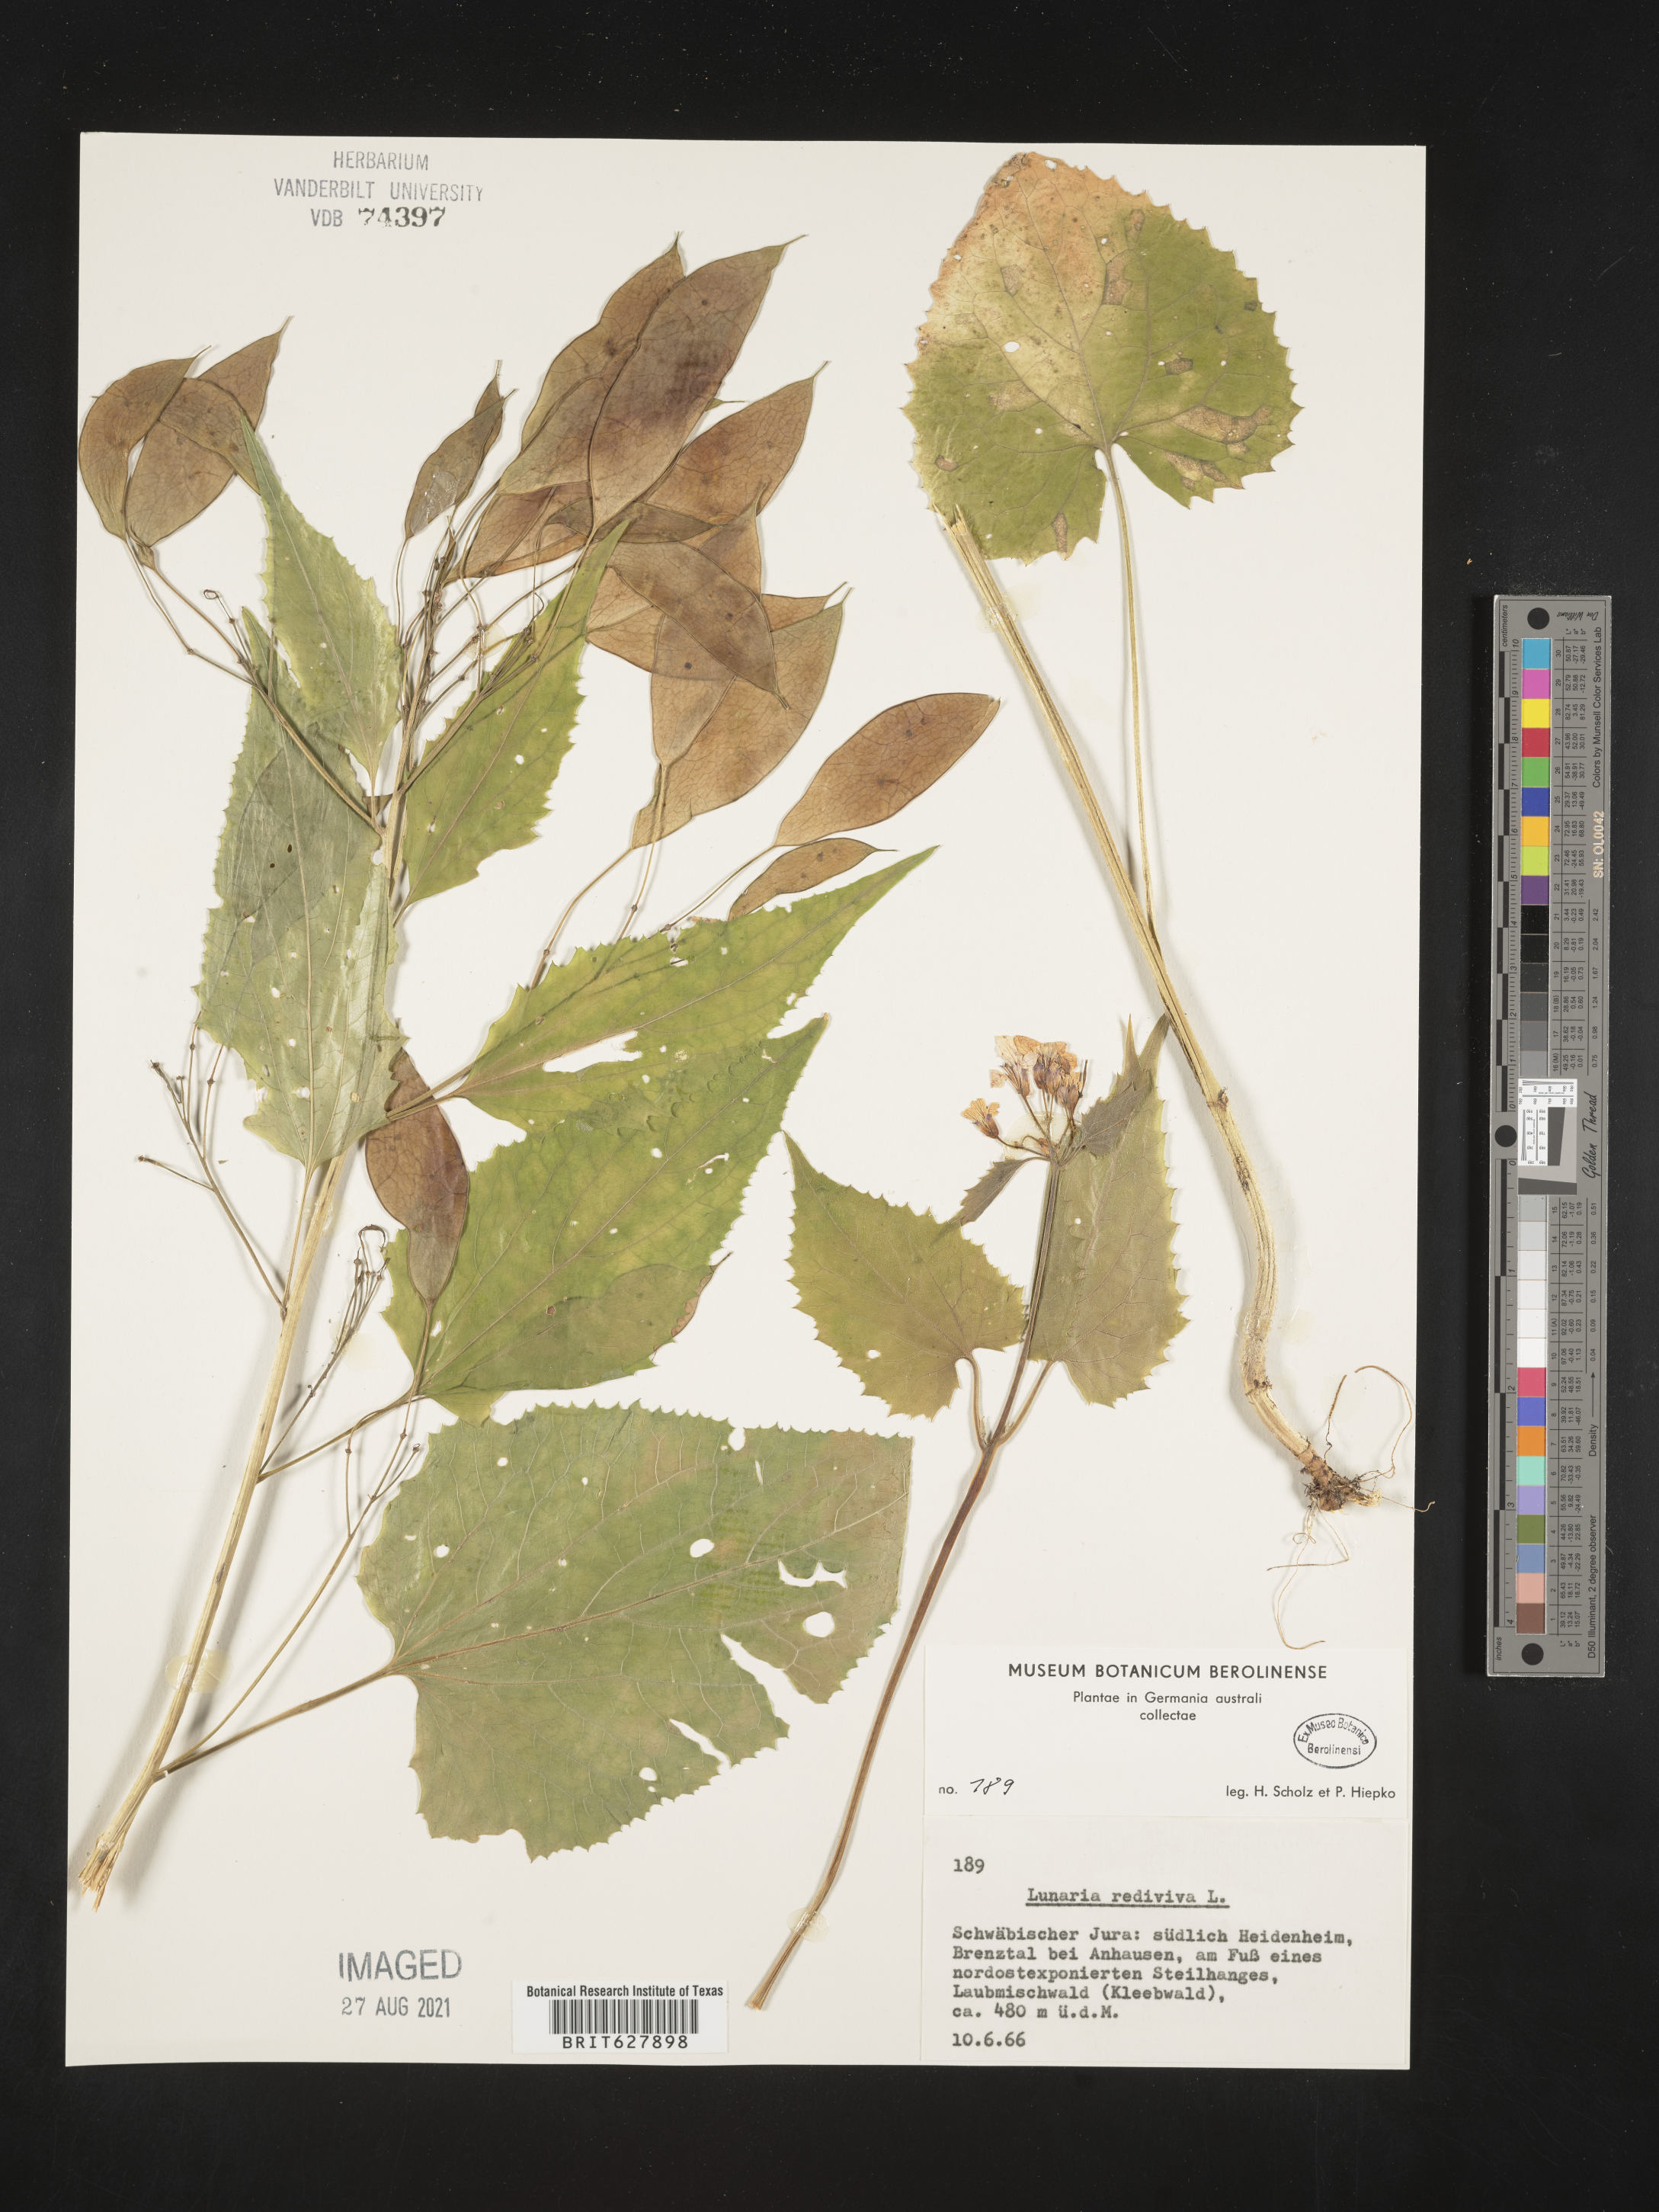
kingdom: Plantae
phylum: Tracheophyta
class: Magnoliopsida
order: Brassicales
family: Brassicaceae
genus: Lunaria
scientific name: Lunaria rediviva
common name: Perennial honesty
